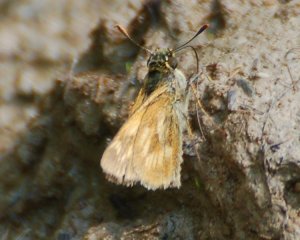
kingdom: Animalia
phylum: Arthropoda
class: Insecta
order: Lepidoptera
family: Hesperiidae
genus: Polites
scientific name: Polites
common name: Long Dash Skipper
